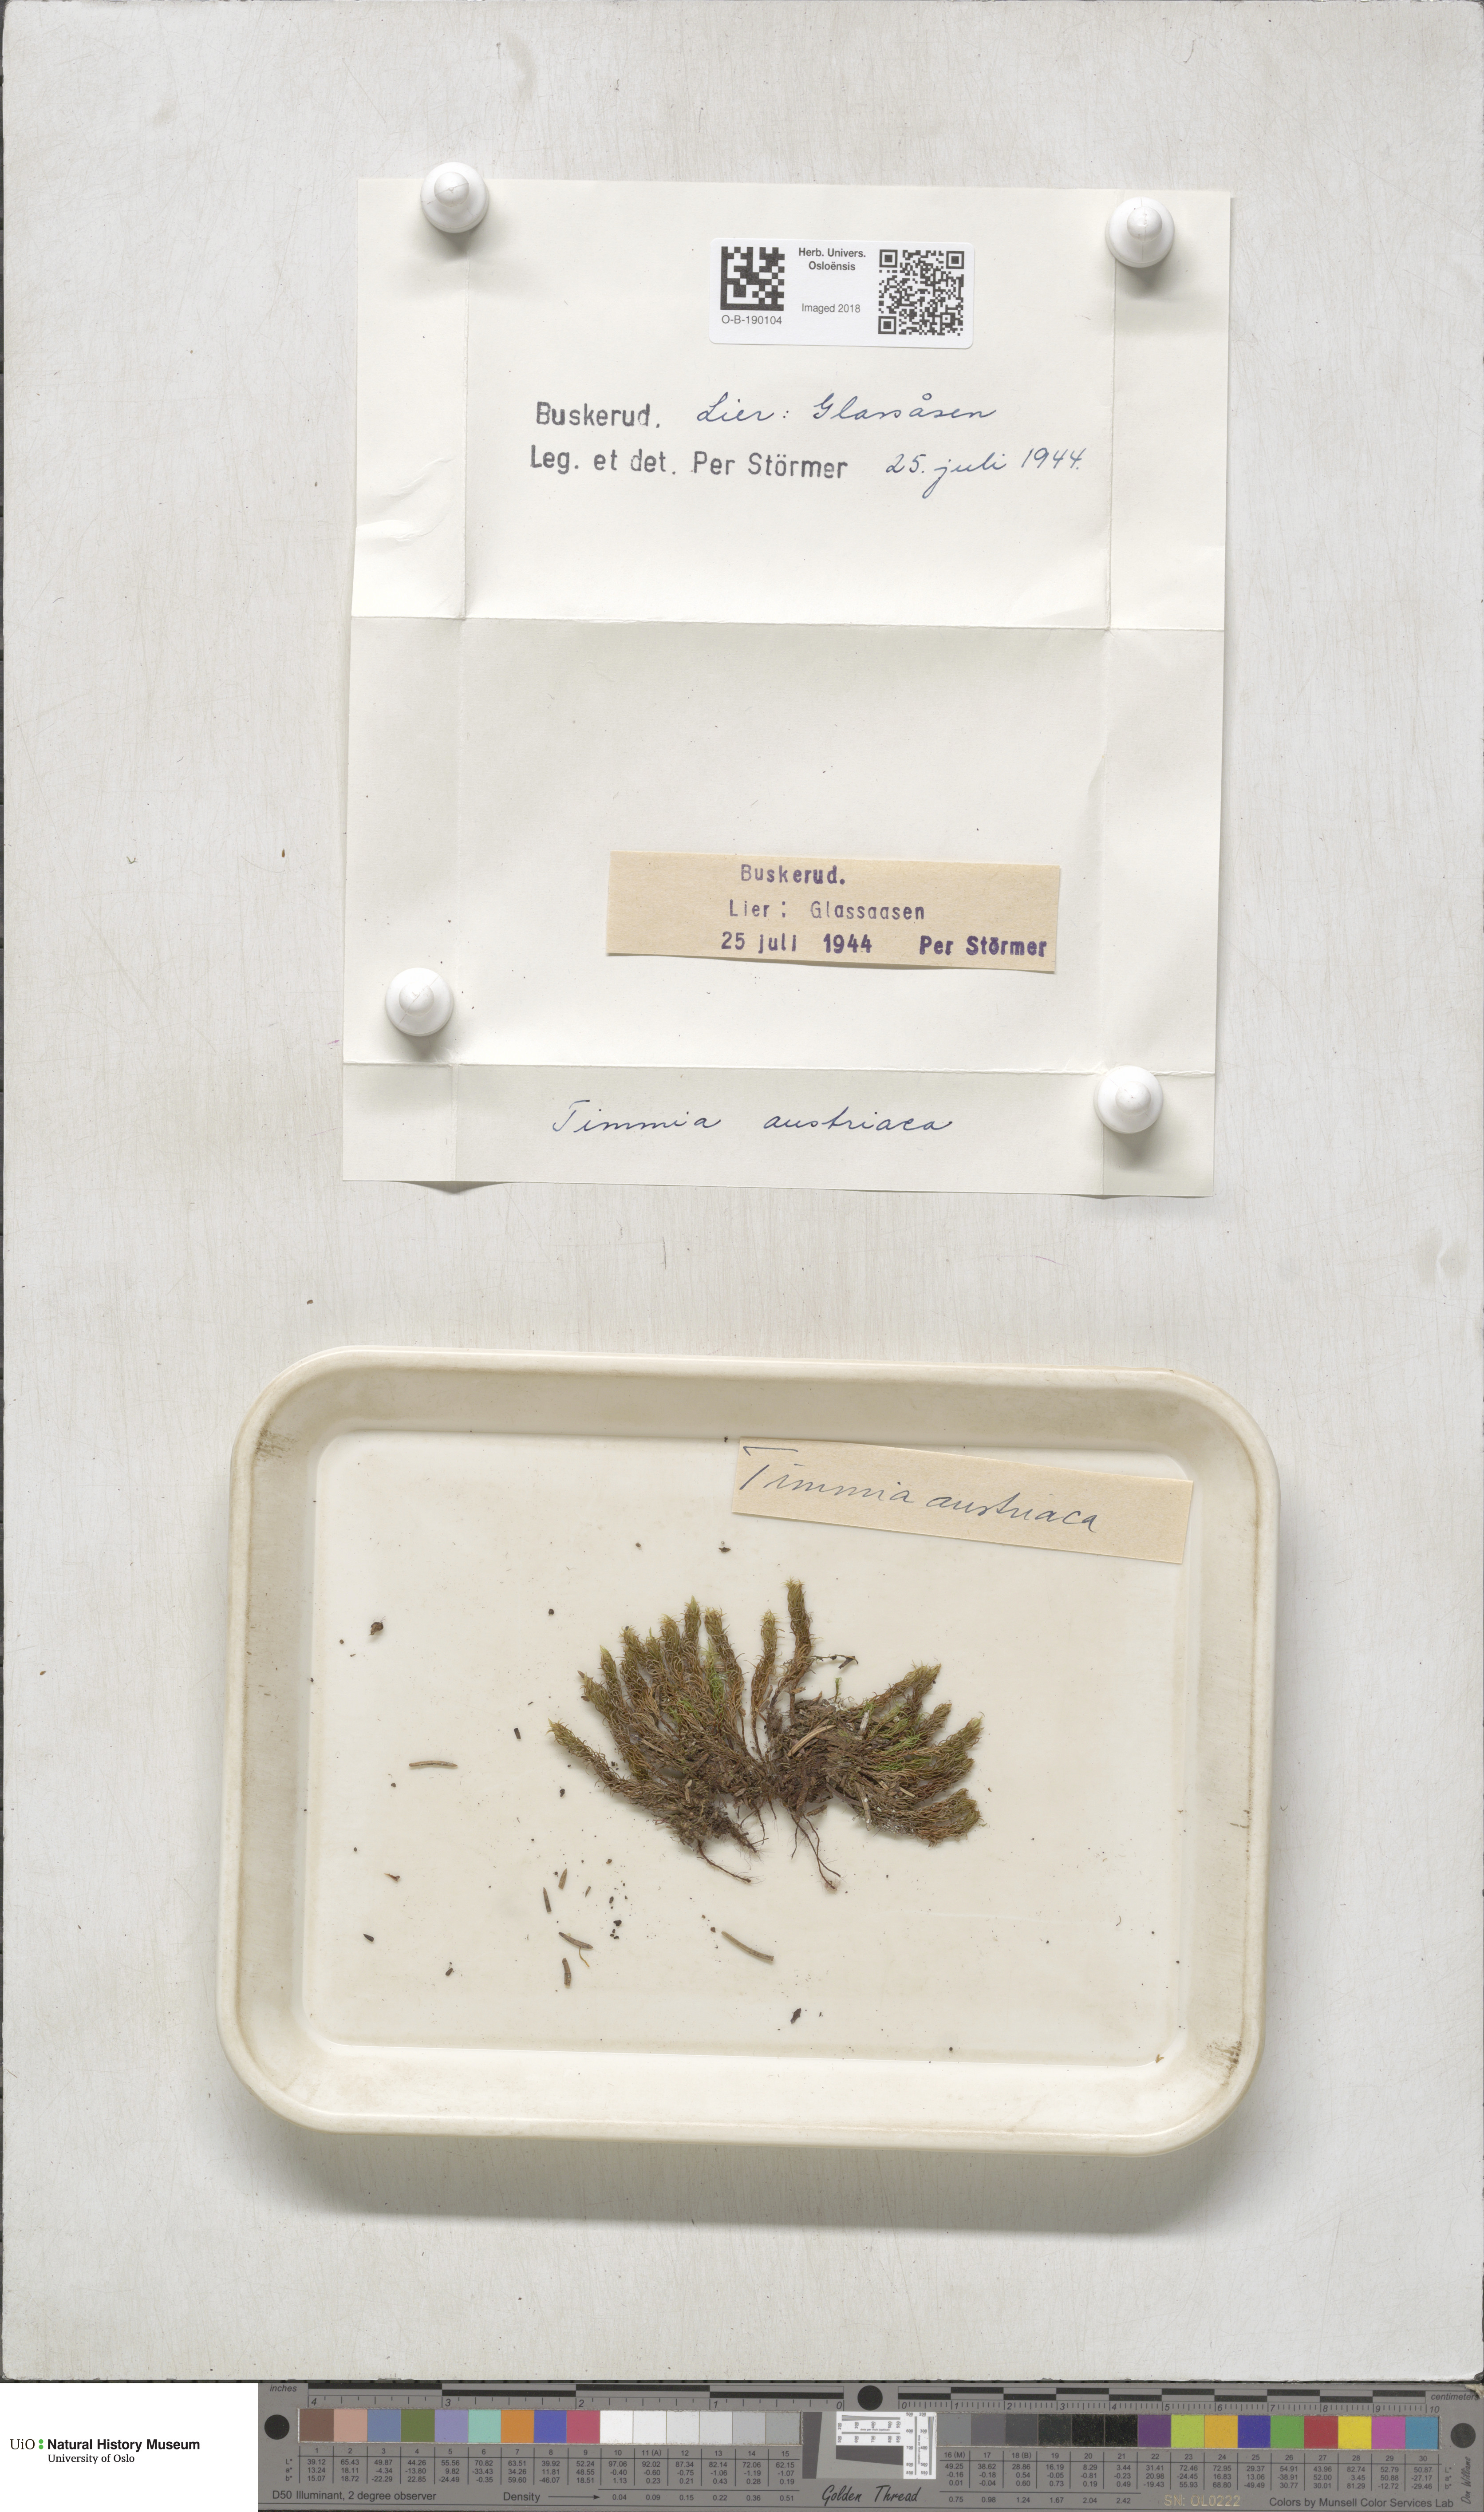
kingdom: Plantae
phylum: Bryophyta
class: Bryopsida
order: Timmiales
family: Timmiaceae
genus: Timmia
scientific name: Timmia austriaca
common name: Austrian timmia
